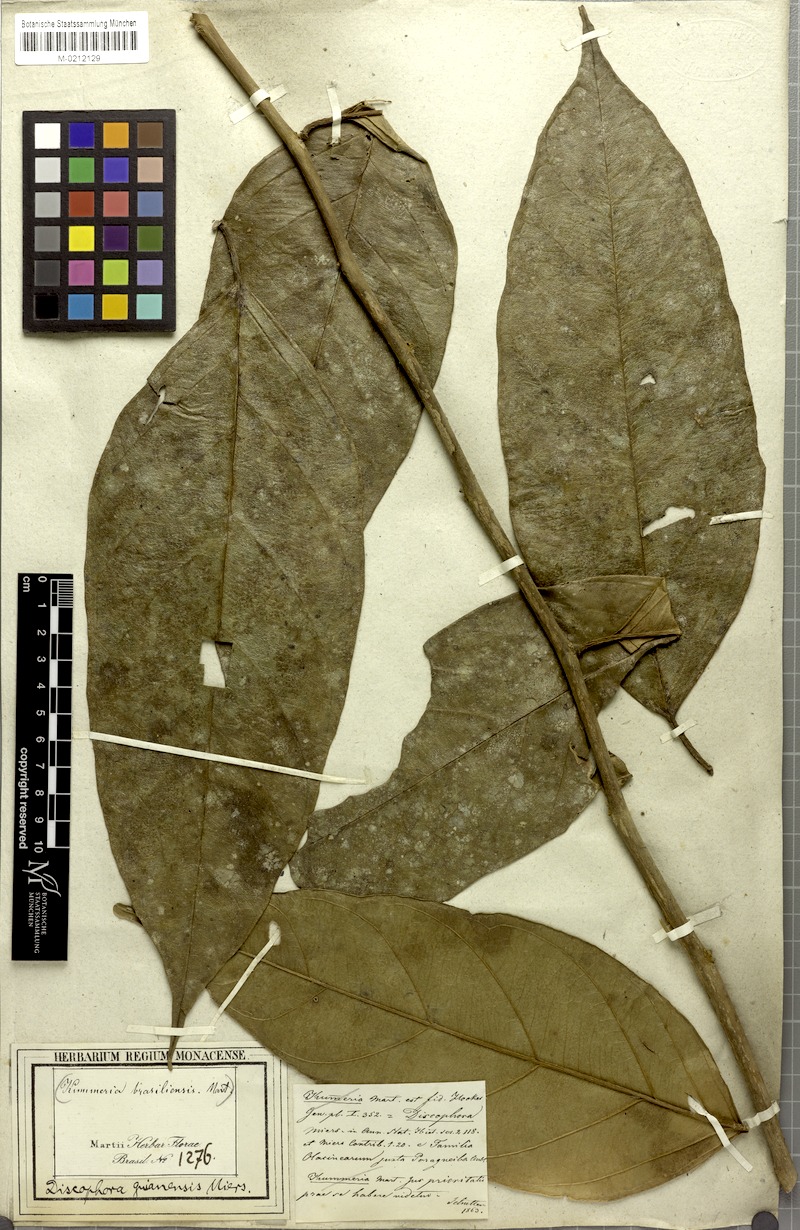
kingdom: Plantae
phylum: Tracheophyta
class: Magnoliopsida
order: Cardiopteridales
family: Stemonuraceae
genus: Discophora
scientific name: Discophora guianensis
